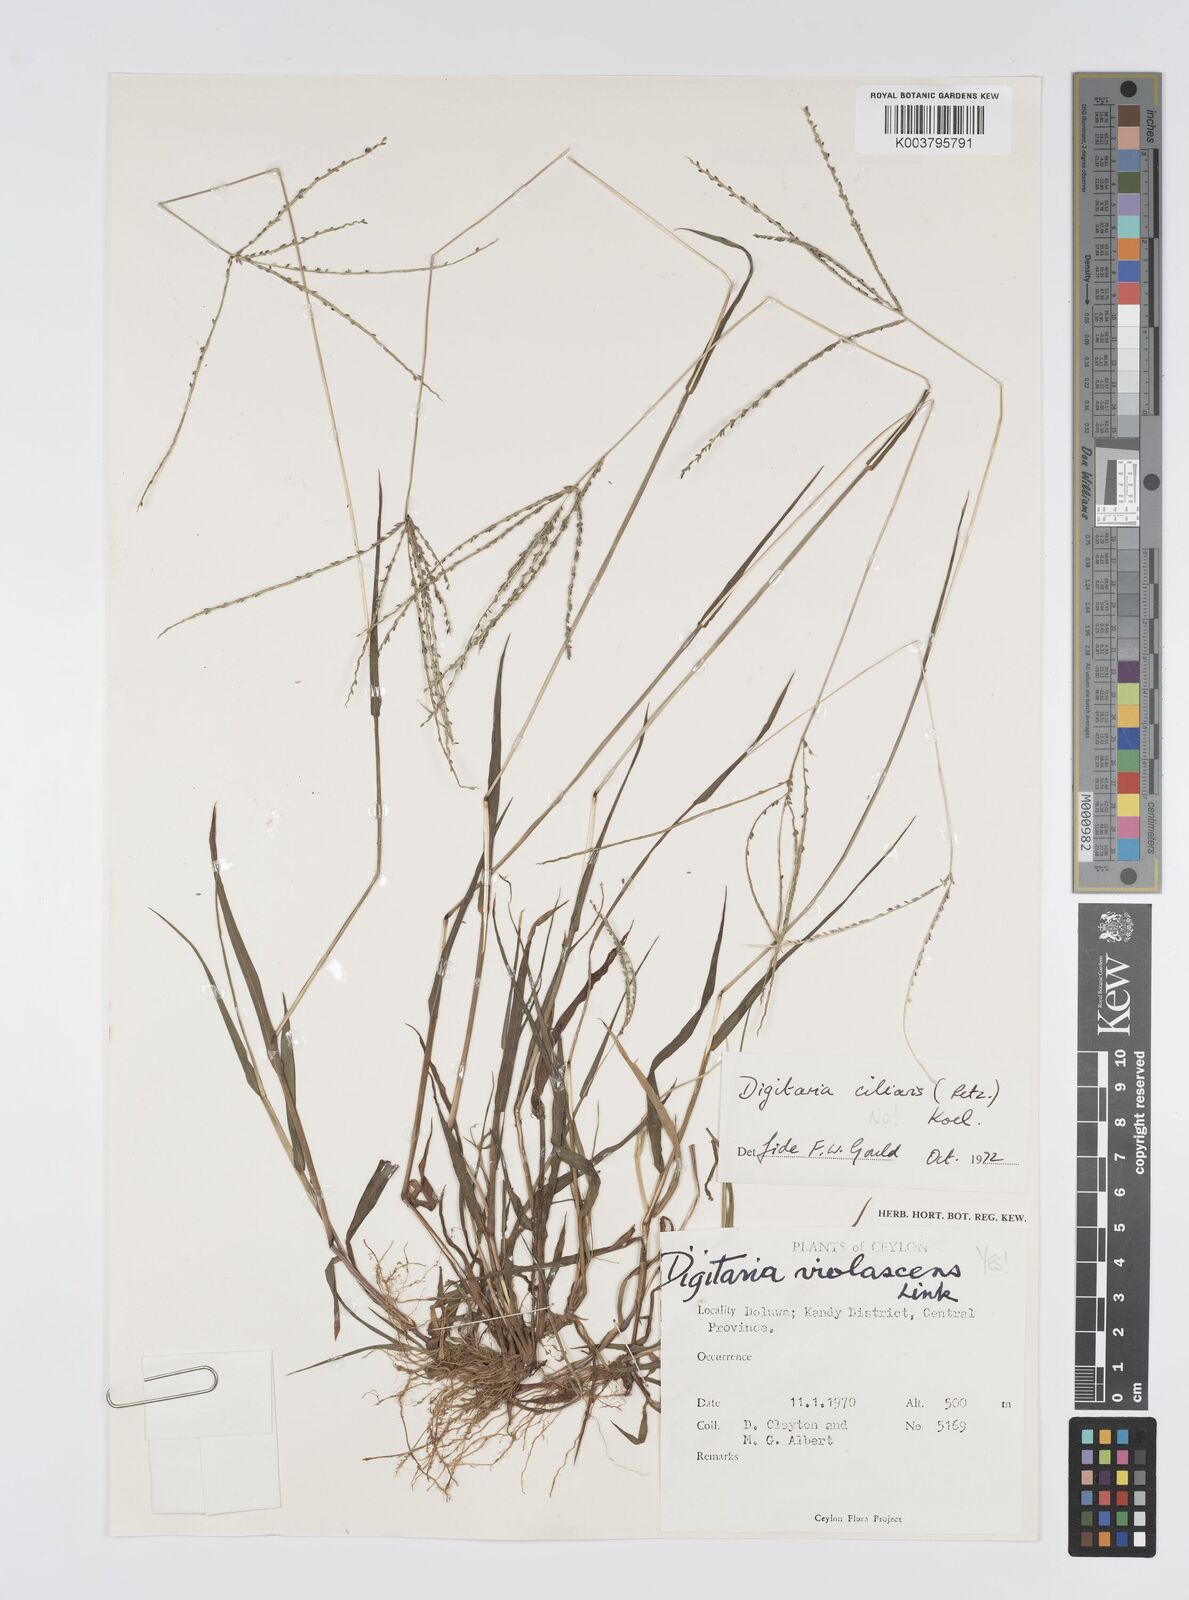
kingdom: Plantae
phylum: Tracheophyta
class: Liliopsida
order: Poales
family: Poaceae
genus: Digitaria
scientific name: Digitaria violascens
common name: Violet crabgrass
